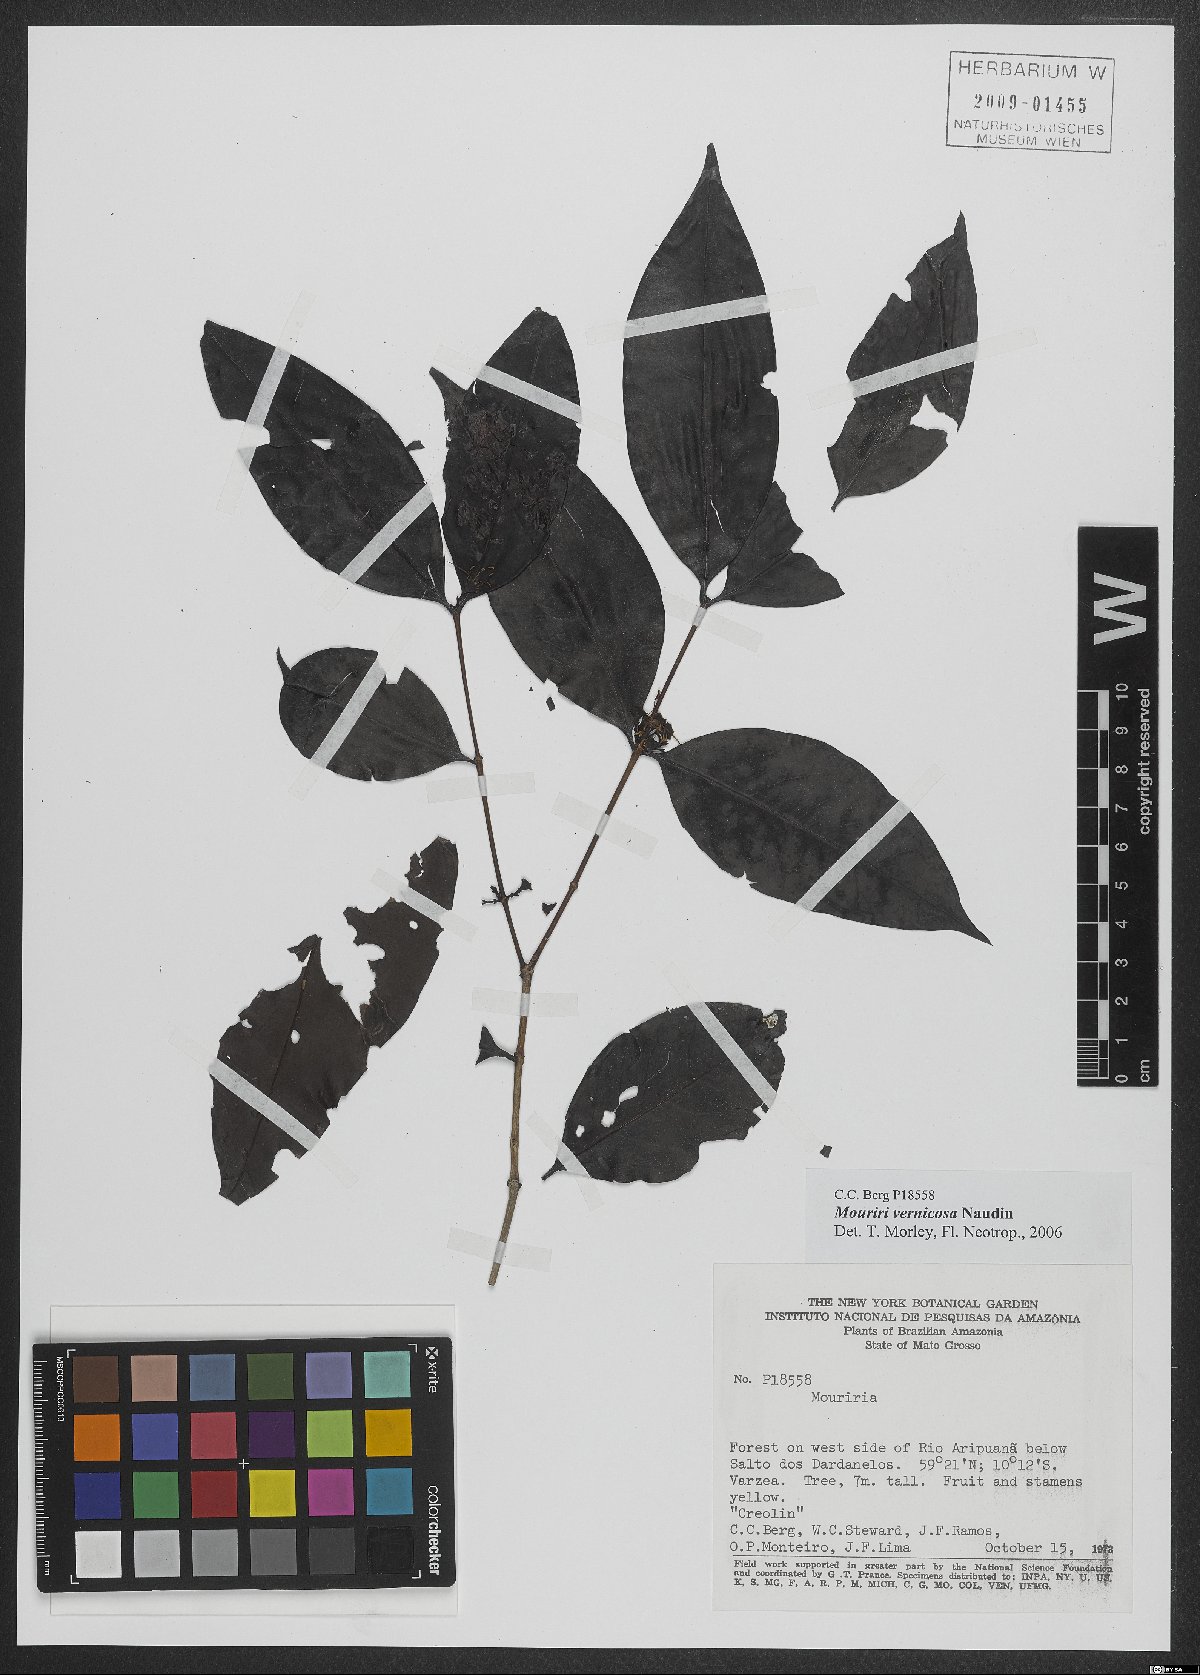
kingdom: Plantae
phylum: Tracheophyta
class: Magnoliopsida
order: Myrtales
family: Melastomataceae
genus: Mouriri
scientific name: Mouriri vernicosa
